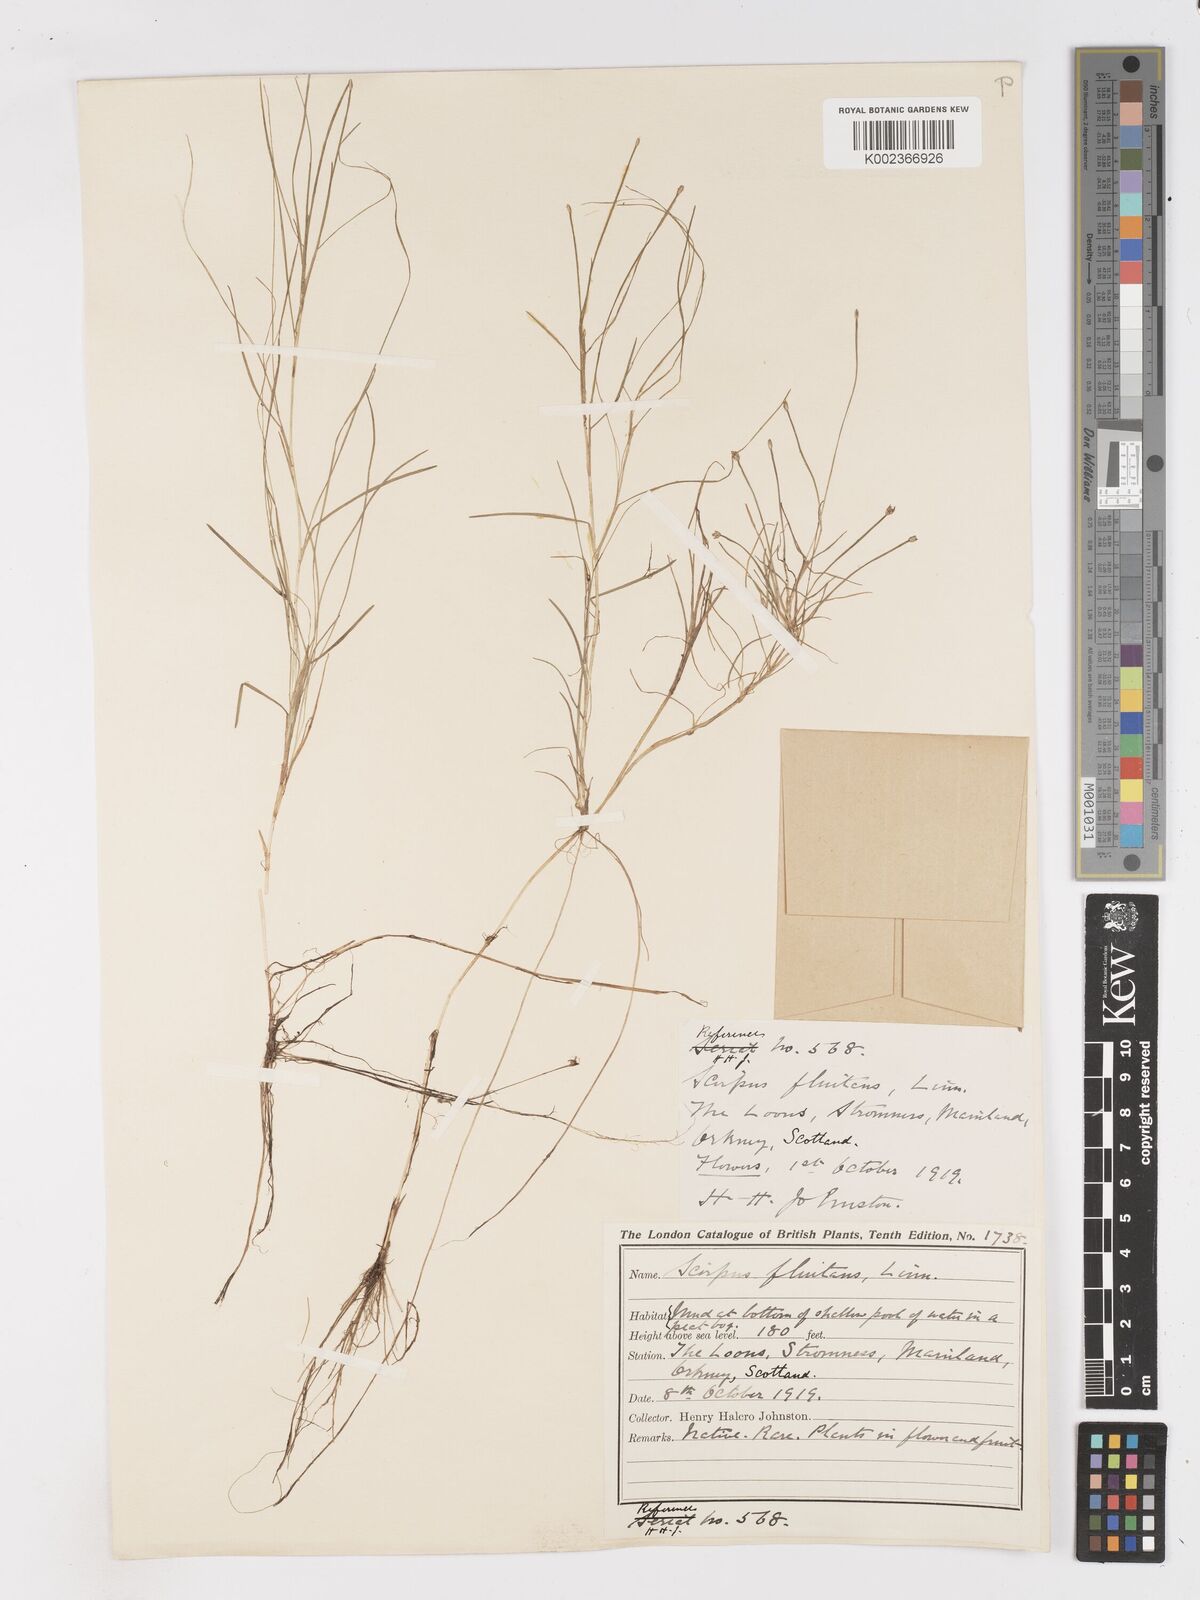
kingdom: Plantae
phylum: Tracheophyta
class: Liliopsida
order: Poales
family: Cyperaceae
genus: Isolepis
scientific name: Isolepis fluitans
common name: Floating club-rush
